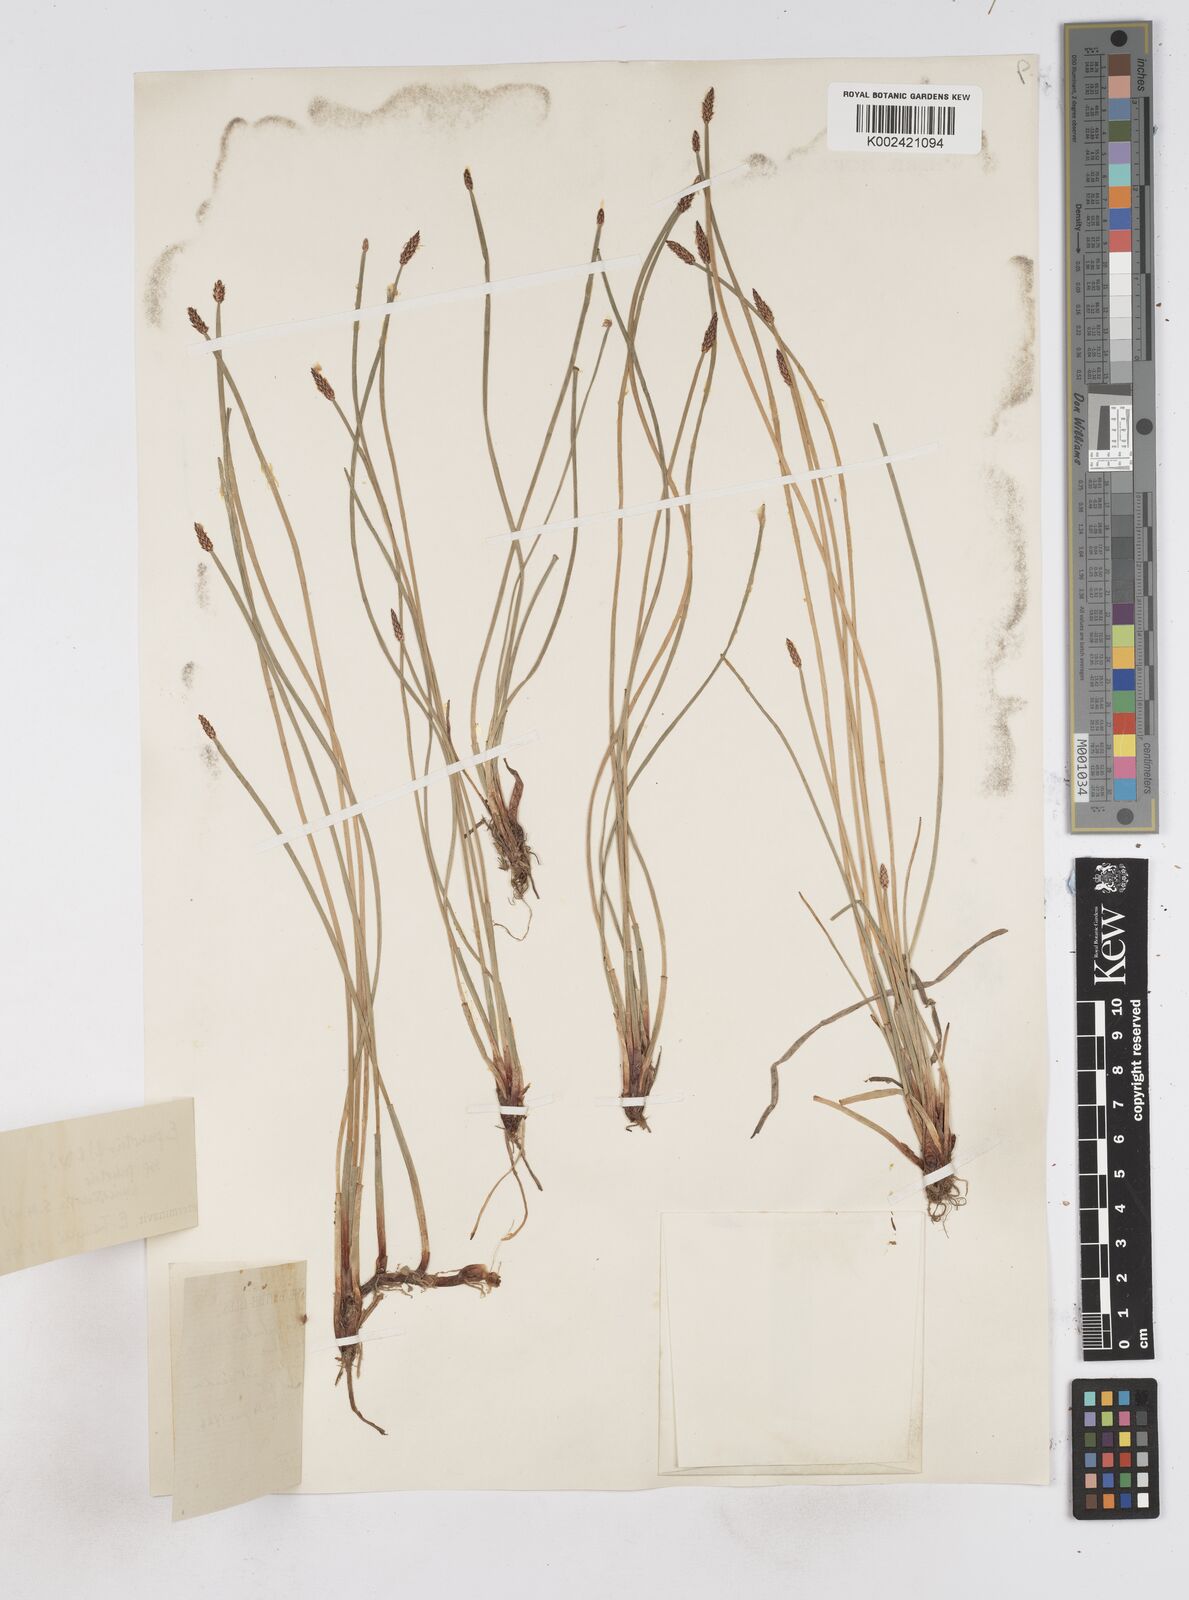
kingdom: Plantae
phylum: Tracheophyta
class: Liliopsida
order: Poales
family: Cyperaceae
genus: Eleocharis
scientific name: Eleocharis palustris
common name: Common spike-rush
